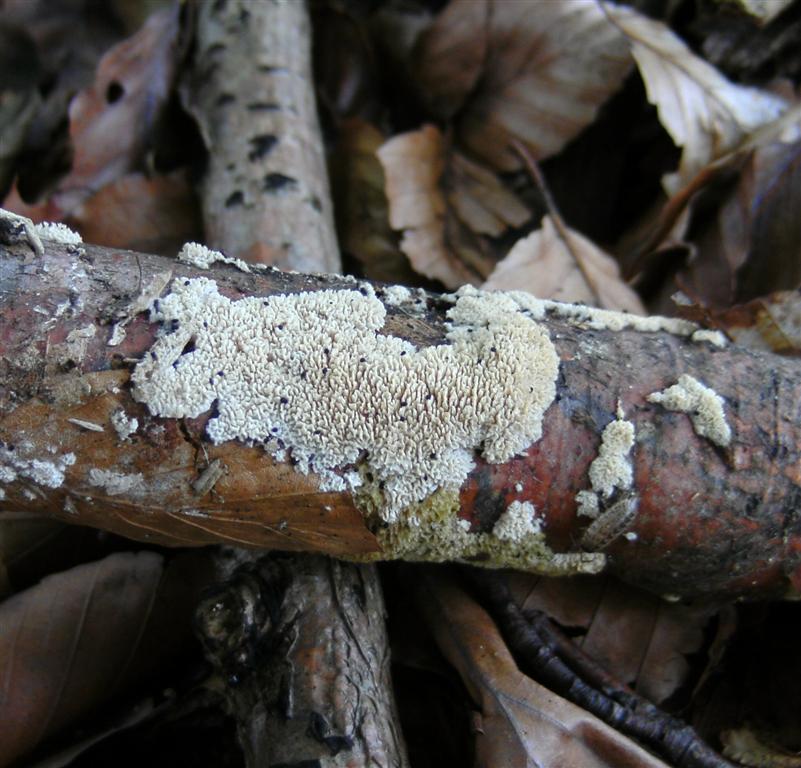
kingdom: Fungi
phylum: Basidiomycota
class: Agaricomycetes
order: Hymenochaetales
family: Schizoporaceae
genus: Schizopora
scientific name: Schizopora paradoxa
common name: hvid tandsvamp
